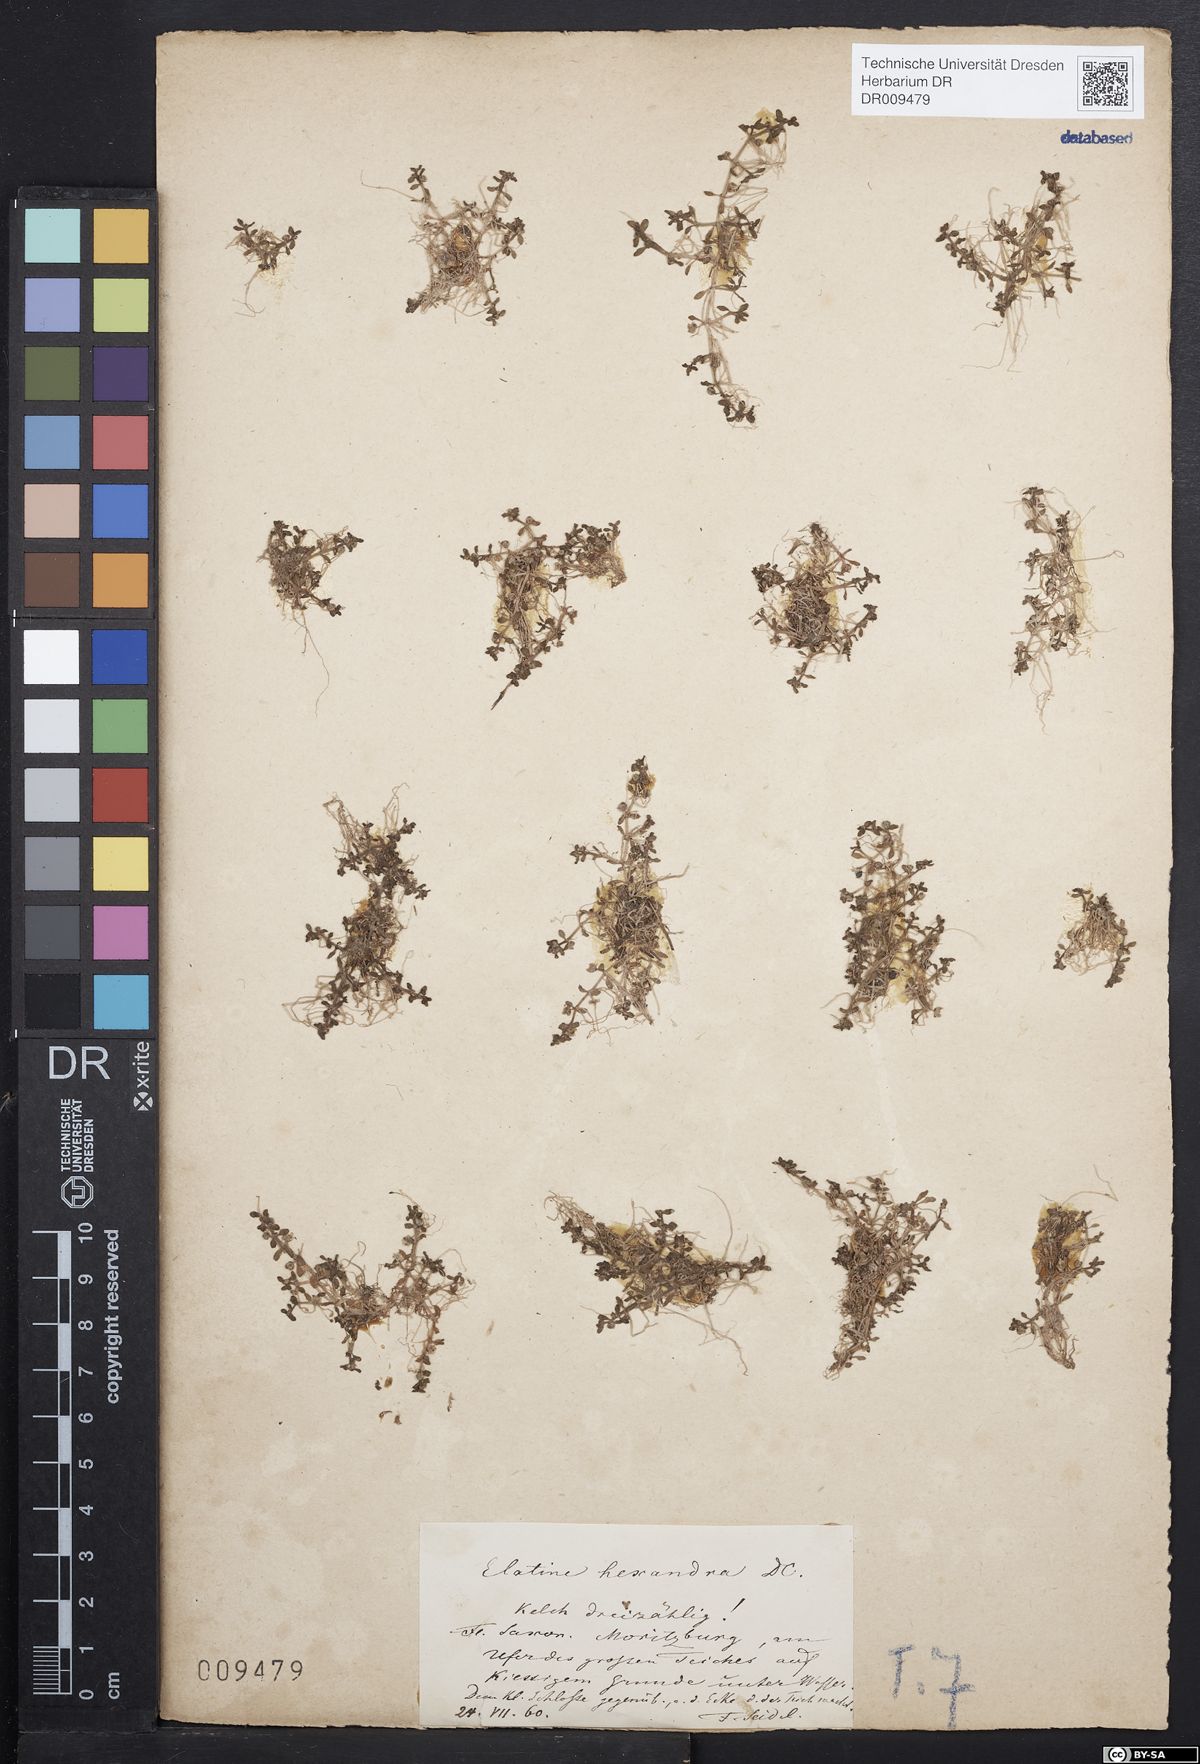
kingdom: Plantae
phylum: Tracheophyta
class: Magnoliopsida
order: Malpighiales
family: Elatinaceae
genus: Elatine
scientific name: Elatine hexandra
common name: Six-stamened waterwort
